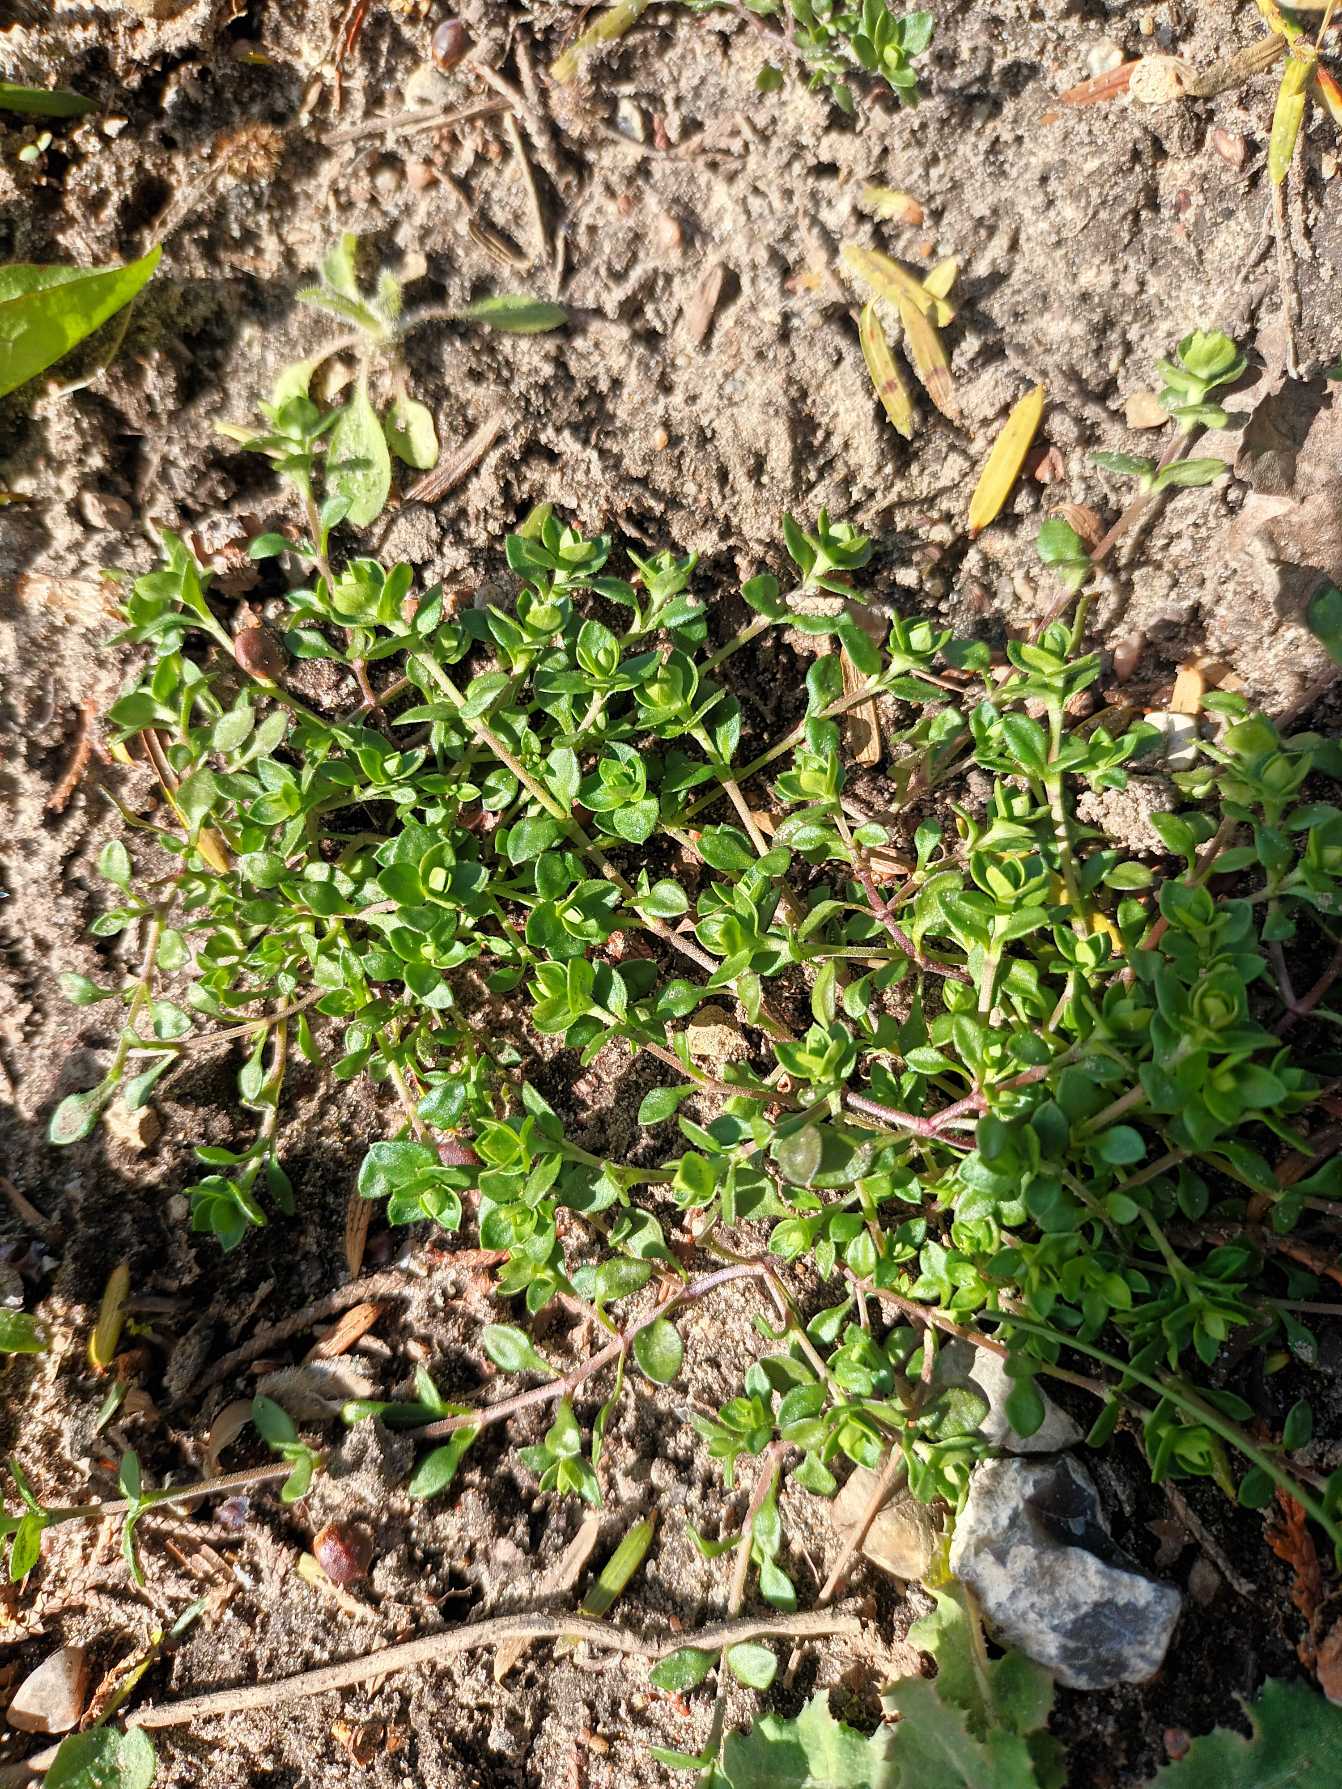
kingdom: Plantae
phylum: Tracheophyta
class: Magnoliopsida
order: Caryophyllales
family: Caryophyllaceae
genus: Arenaria
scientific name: Arenaria serpyllifolia
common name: Almindelig markarve
